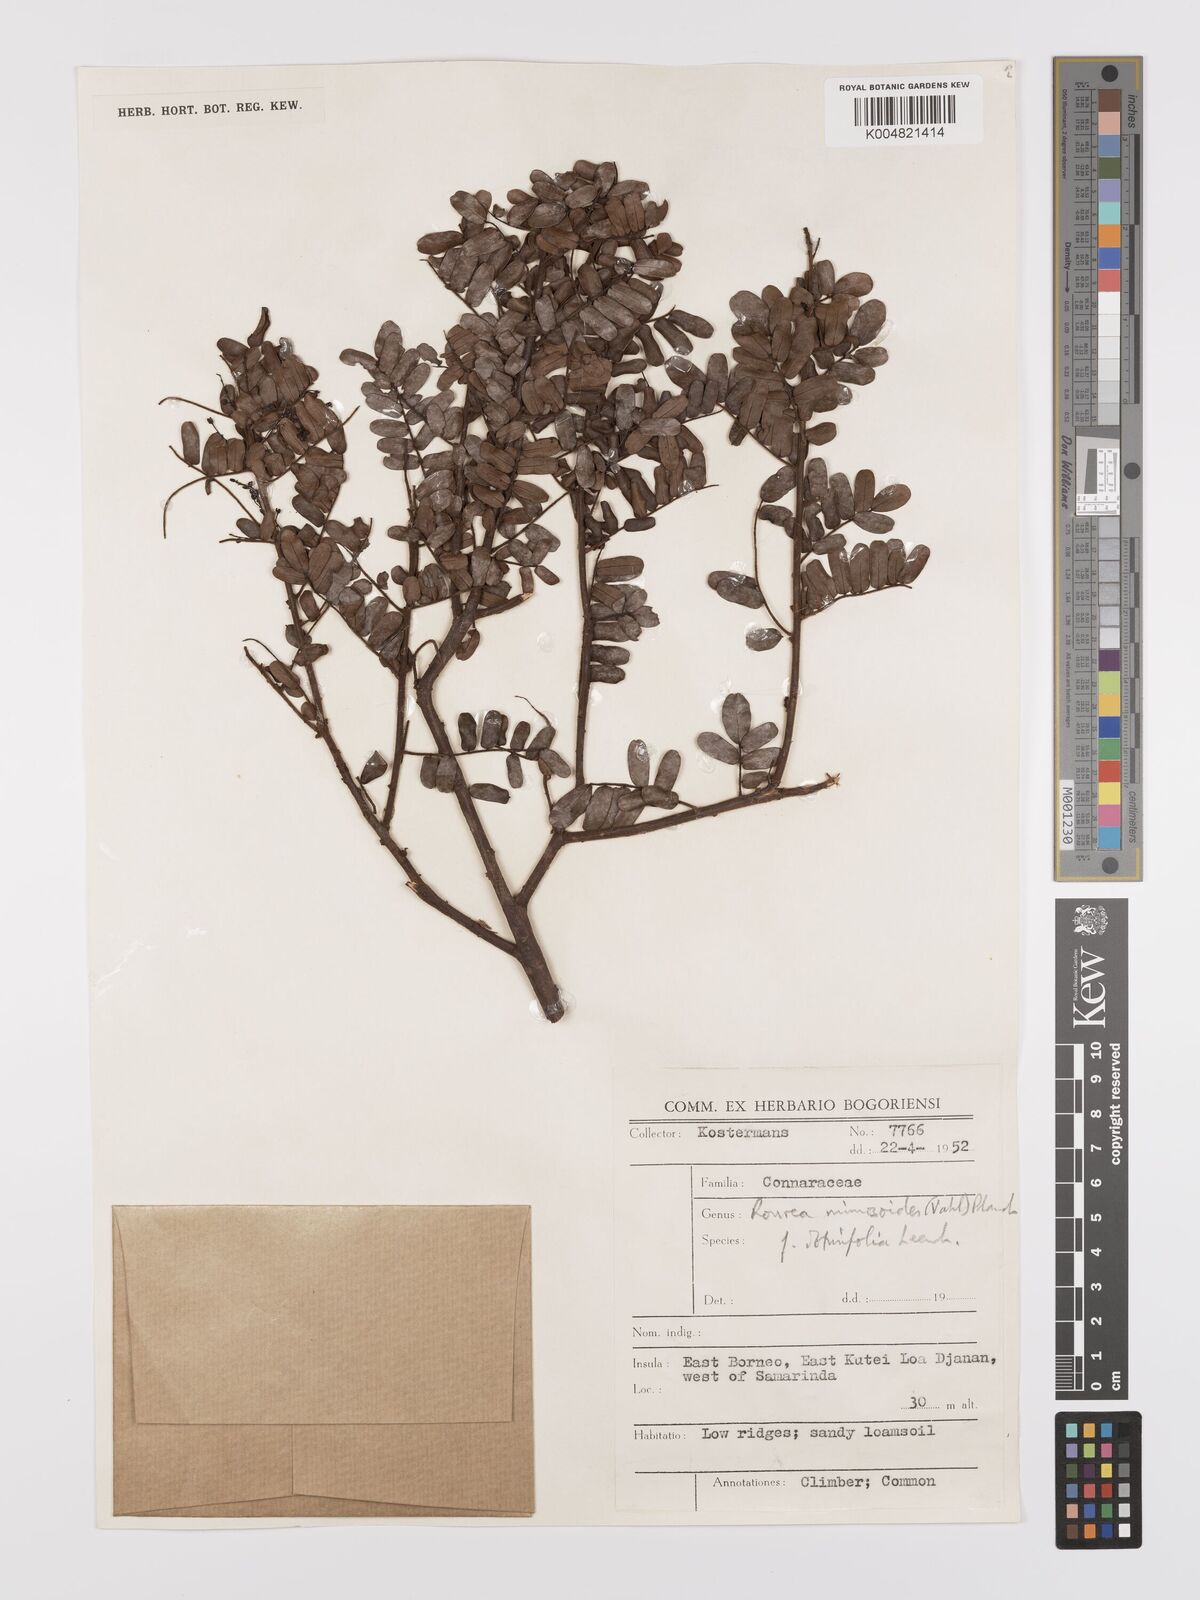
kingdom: Plantae
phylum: Tracheophyta
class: Magnoliopsida
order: Oxalidales
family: Connaraceae
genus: Rourea
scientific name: Rourea mimosoides
